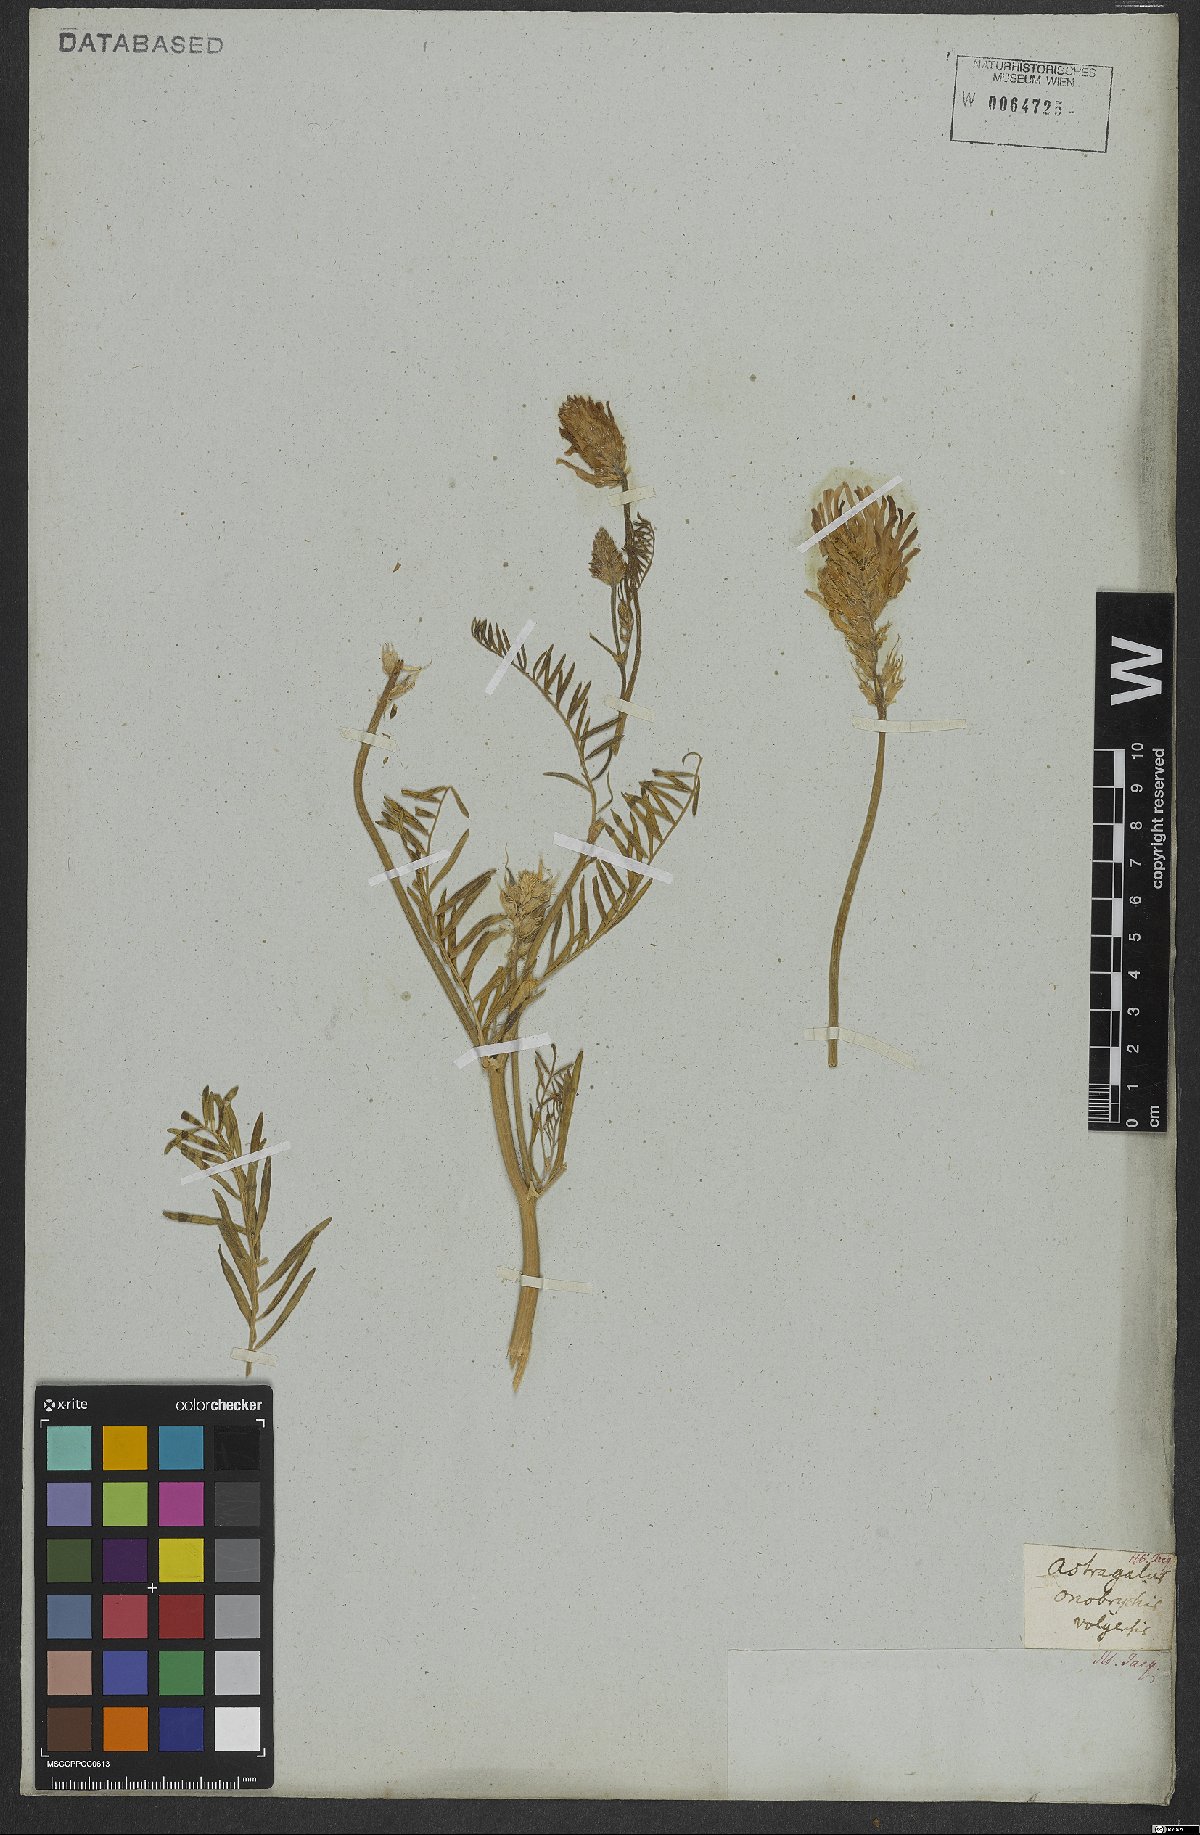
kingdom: Plantae
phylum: Tracheophyta
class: Magnoliopsida
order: Fabales
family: Fabaceae
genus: Astragalus
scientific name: Astragalus onobrychis
